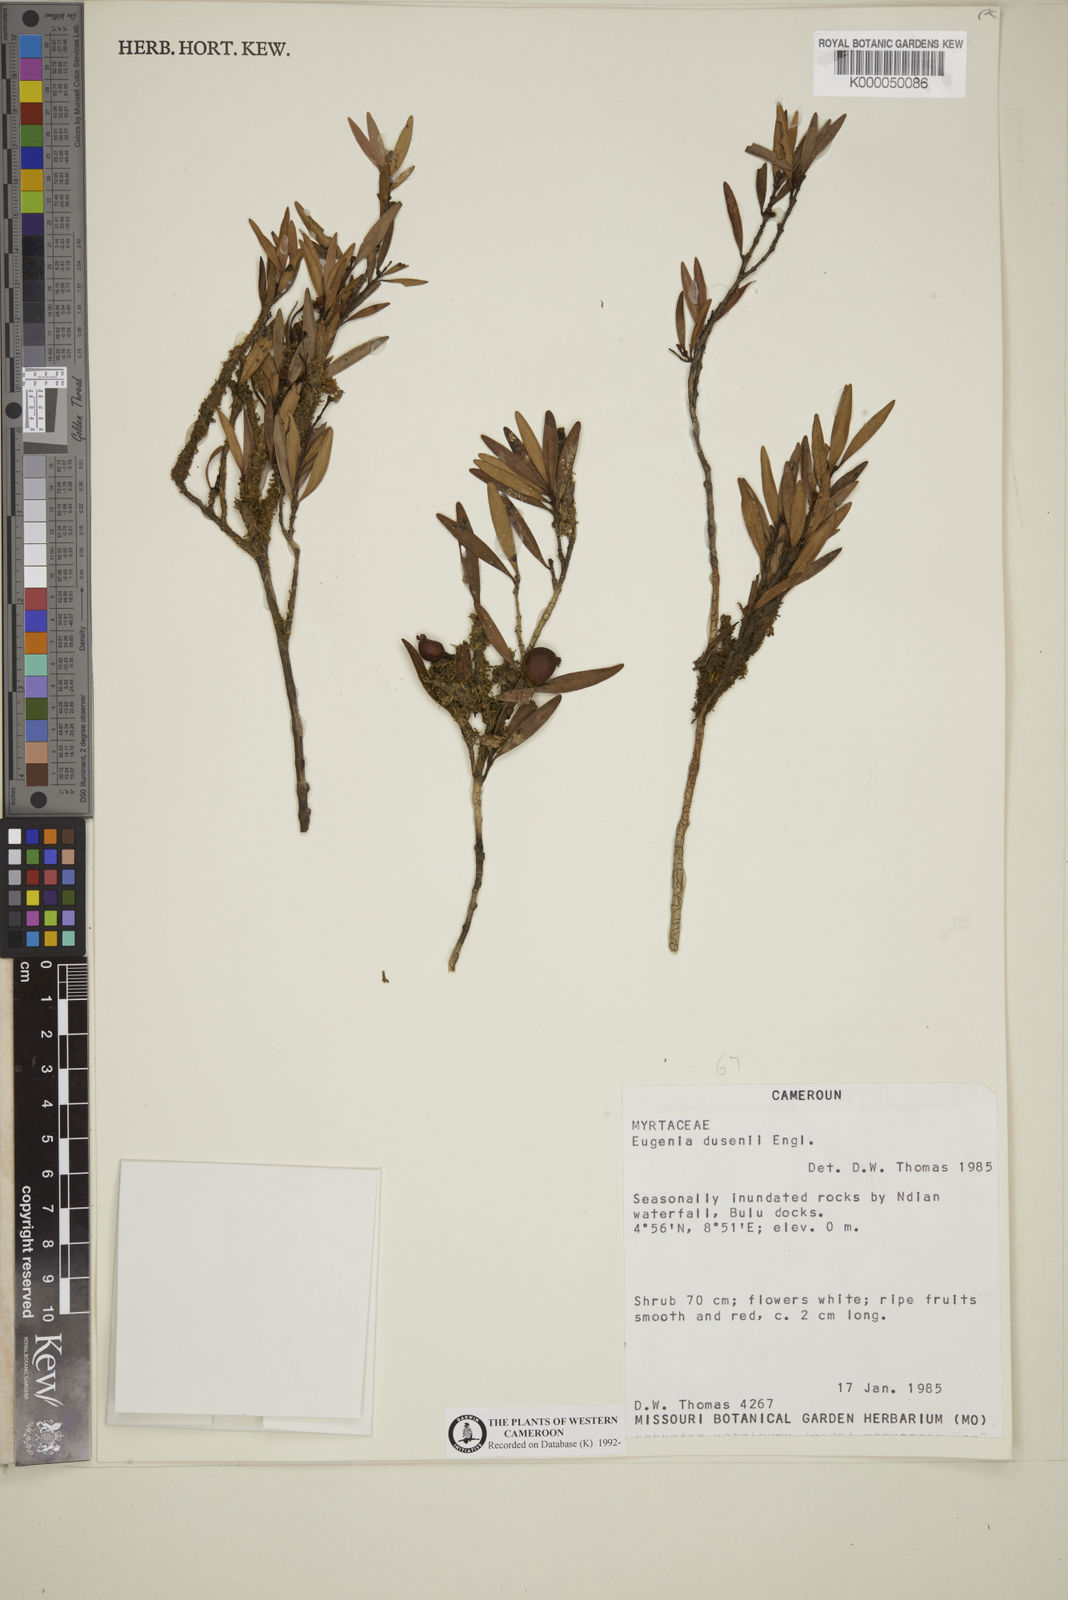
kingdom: Plantae
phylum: Tracheophyta
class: Magnoliopsida
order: Myrtales
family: Myrtaceae
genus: Eugenia
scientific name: Eugenia dusenii
